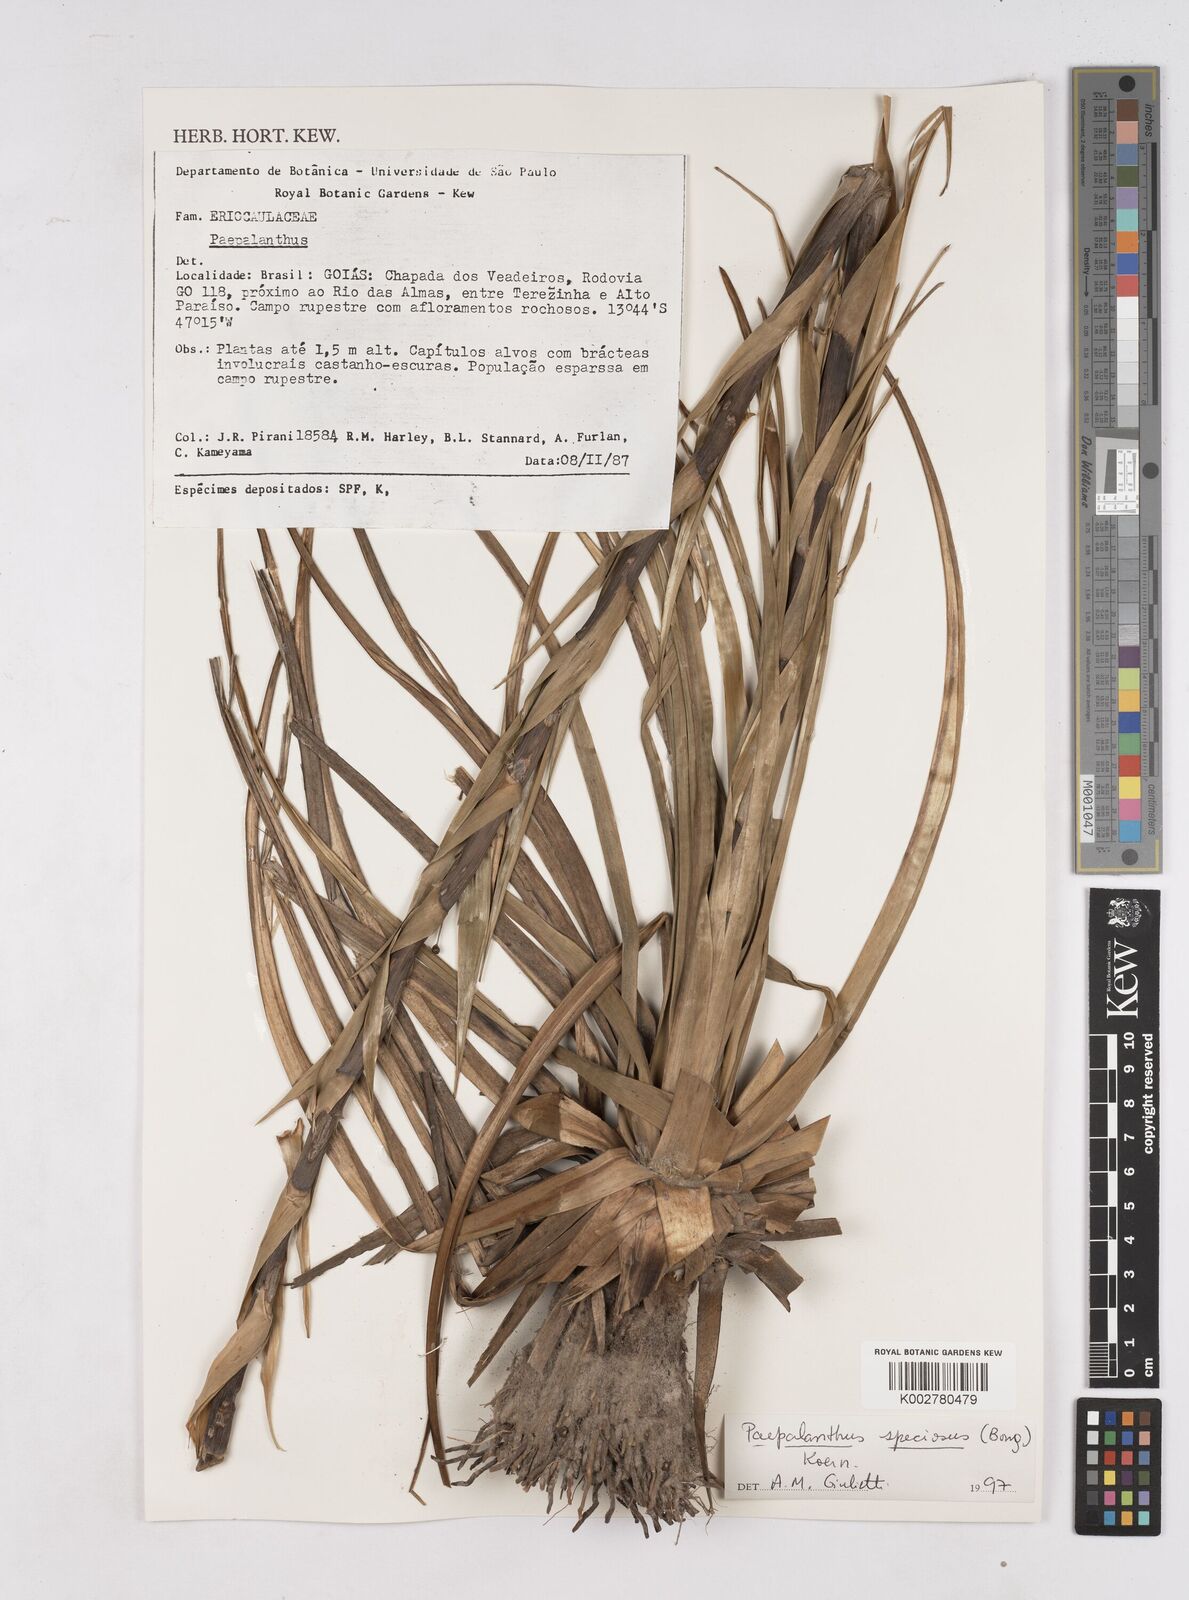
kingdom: Plantae
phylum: Tracheophyta
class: Liliopsida
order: Poales
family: Eriocaulaceae
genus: Paepalanthus
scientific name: Paepalanthus chiquitensis
